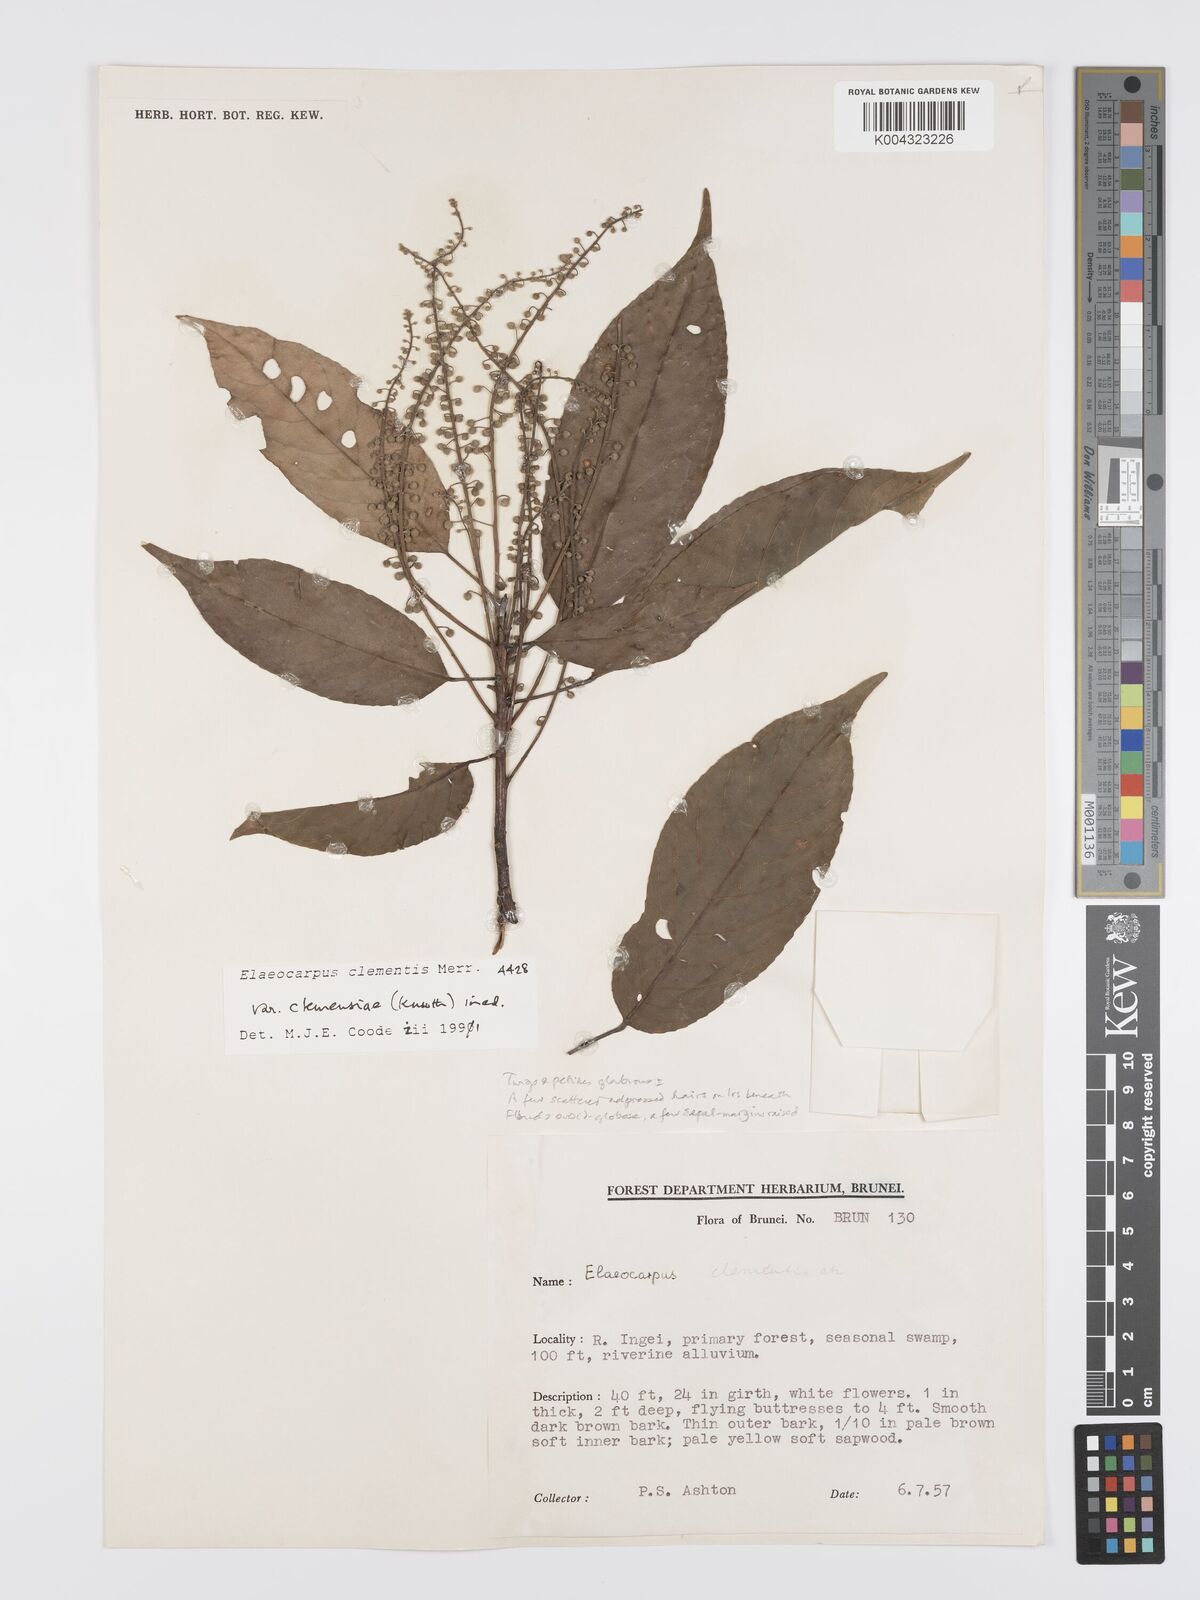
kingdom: Plantae
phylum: Tracheophyta
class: Magnoliopsida
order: Oxalidales
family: Elaeocarpaceae
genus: Elaeocarpus
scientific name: Elaeocarpus clementis
